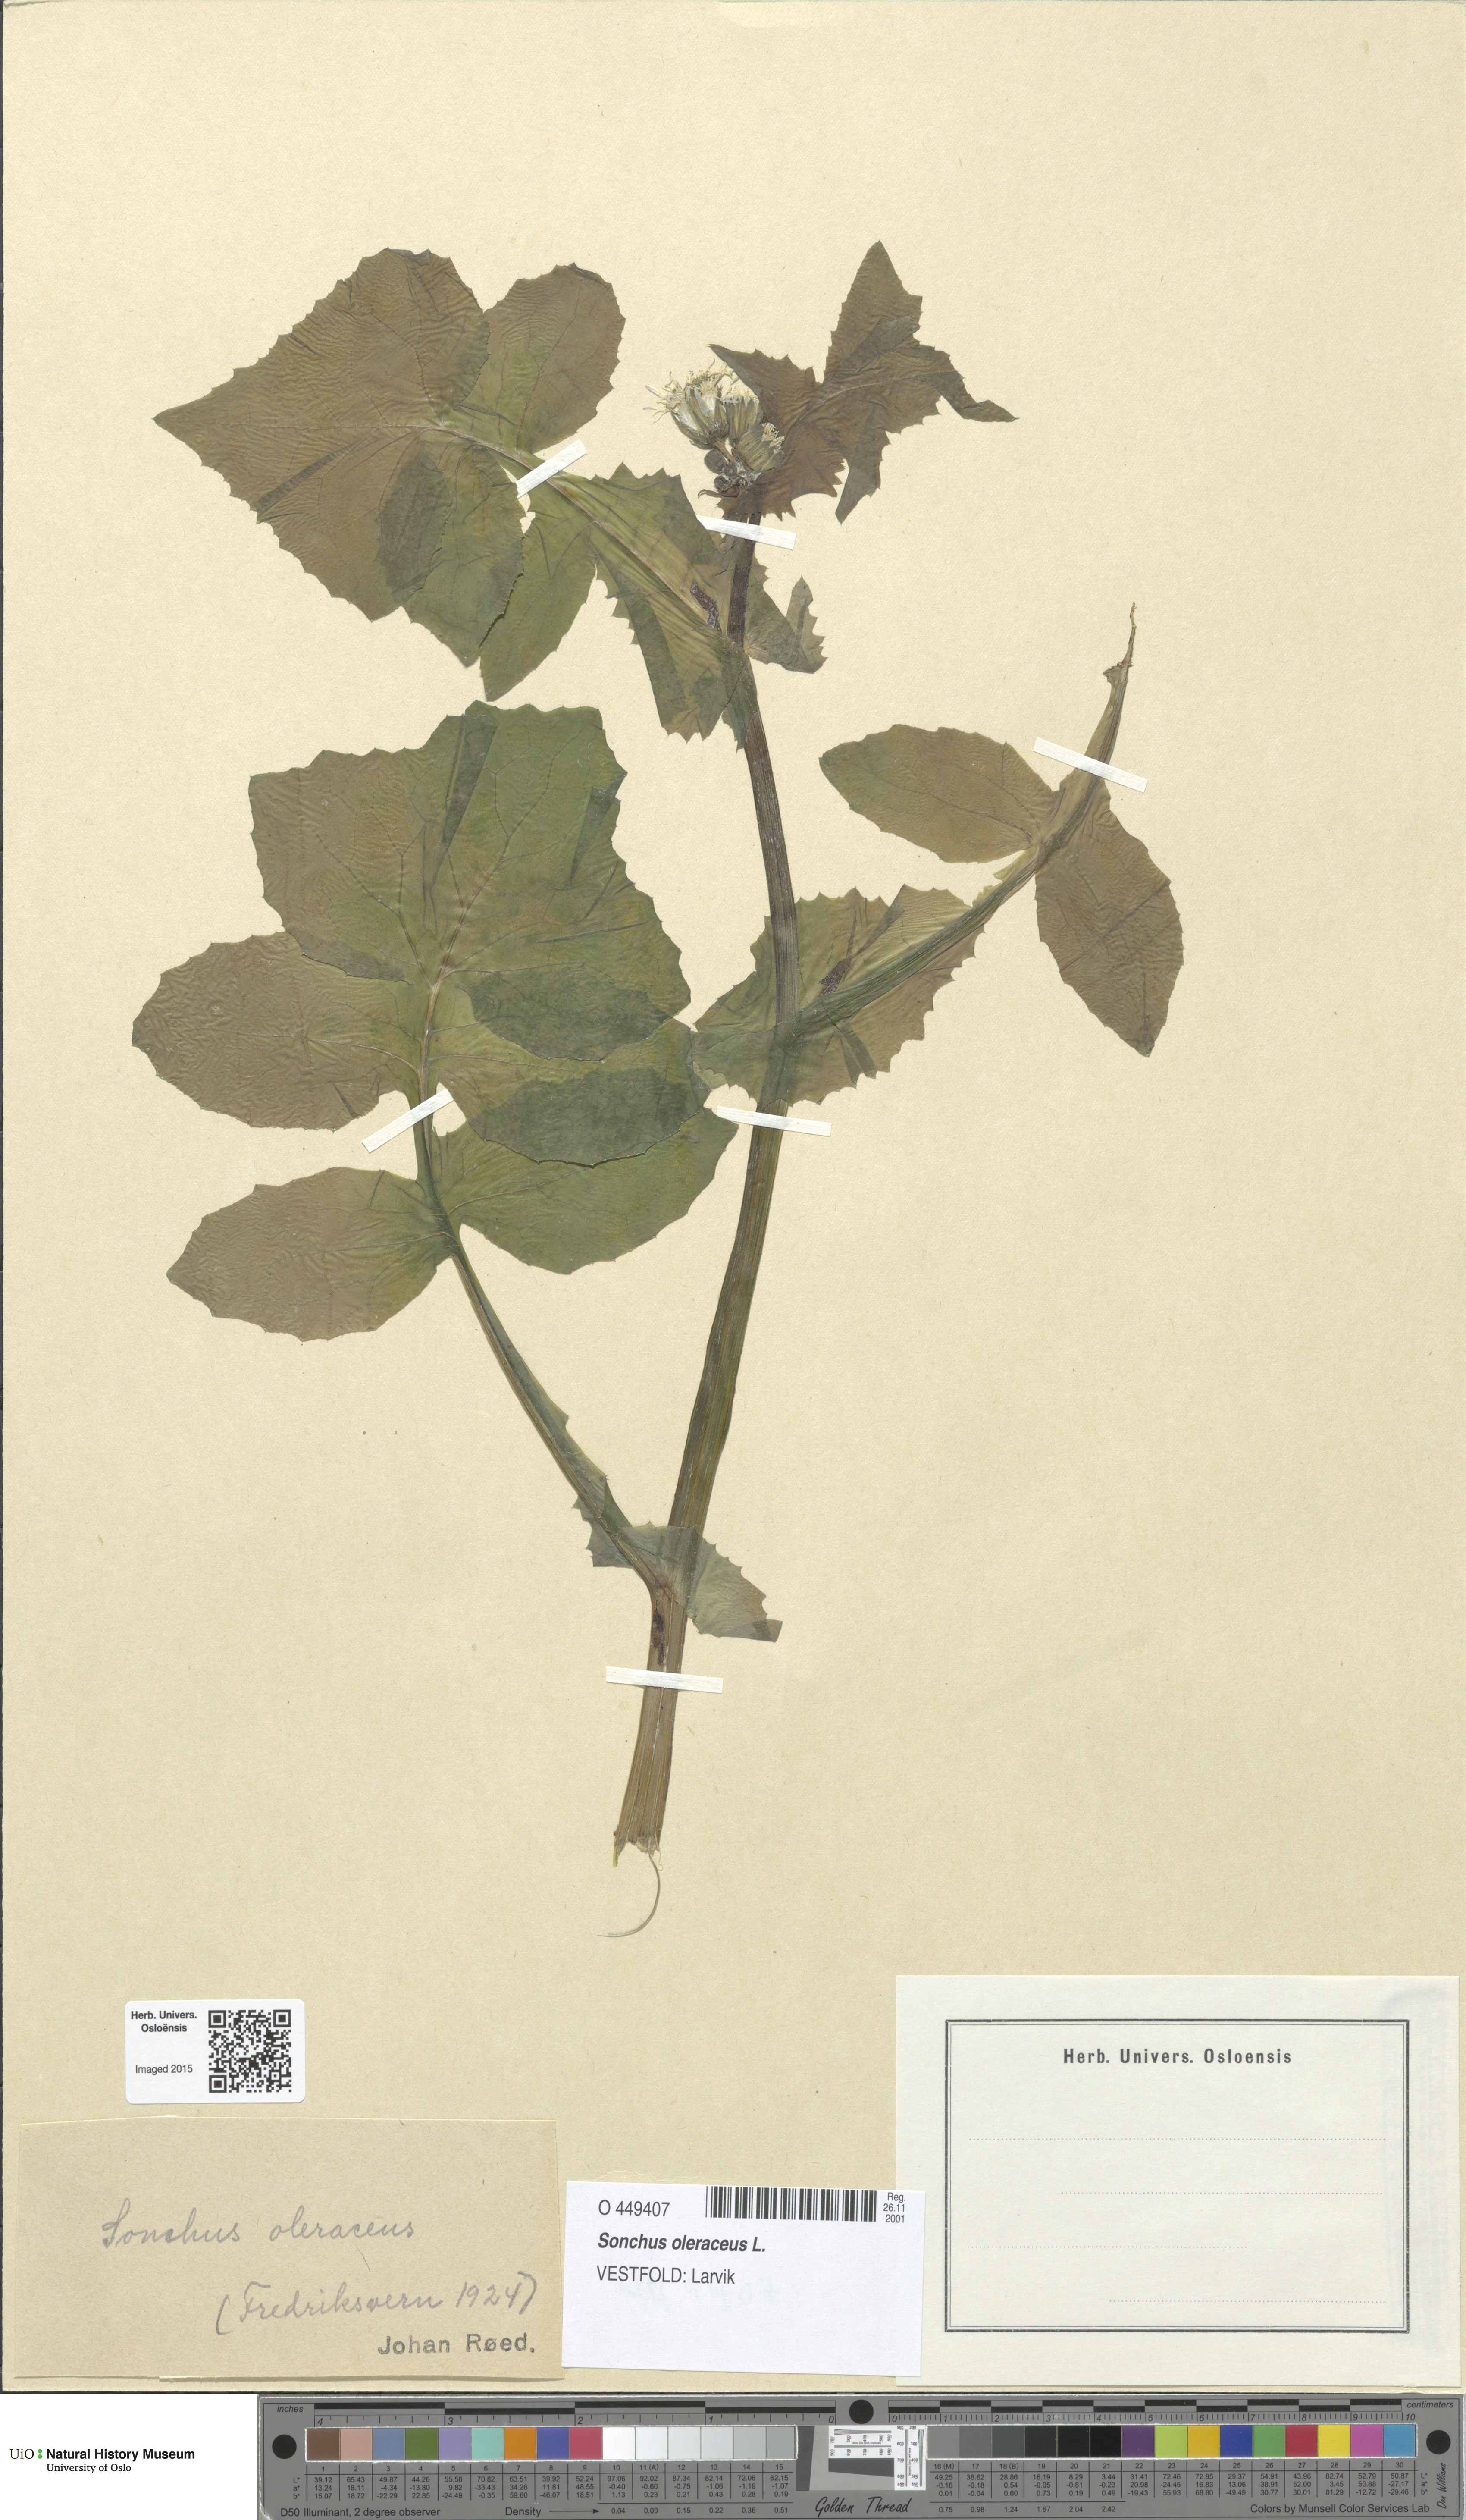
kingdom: Plantae
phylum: Tracheophyta
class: Magnoliopsida
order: Asterales
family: Asteraceae
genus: Sonchus
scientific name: Sonchus oleraceus
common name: Common sowthistle
